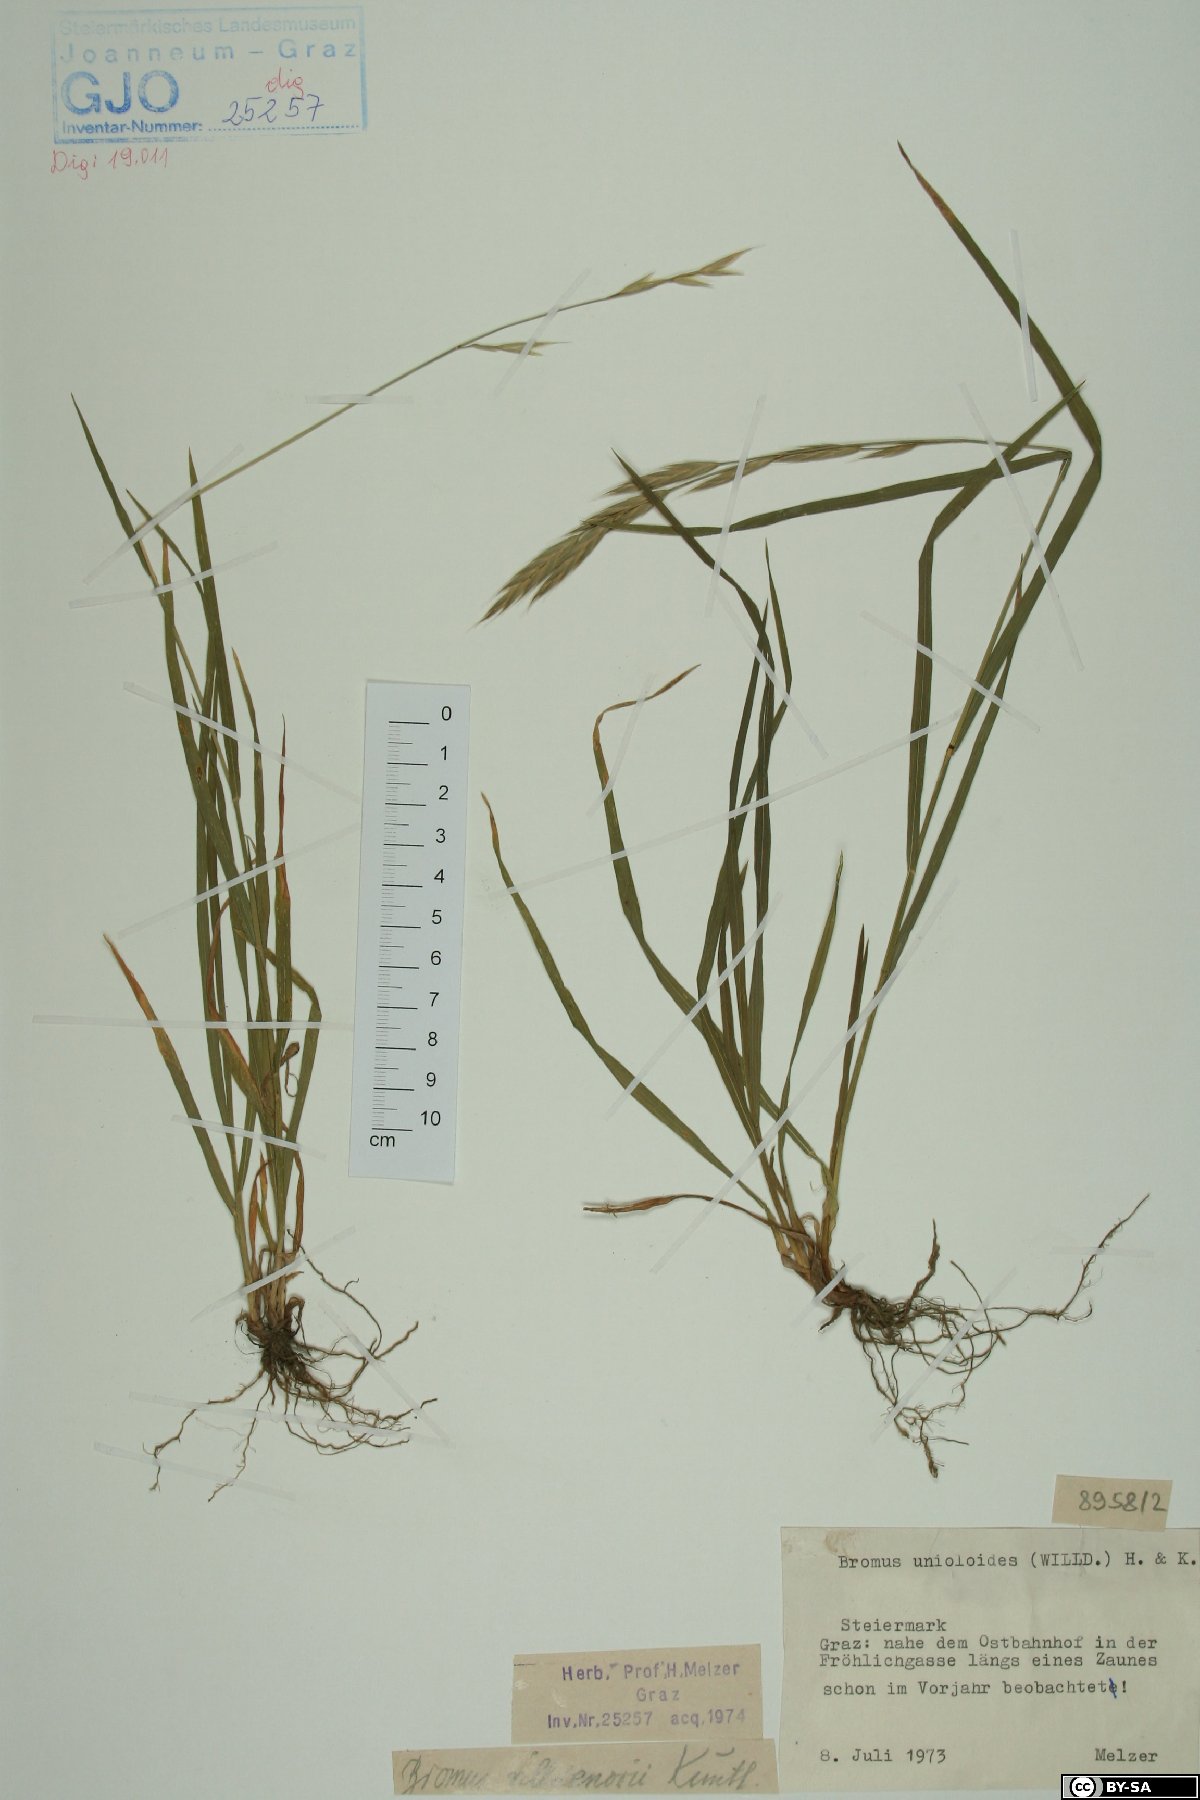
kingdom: Plantae
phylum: Tracheophyta
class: Liliopsida
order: Poales
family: Poaceae
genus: Bromus
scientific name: Bromus catharticus
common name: Rescuegrass
